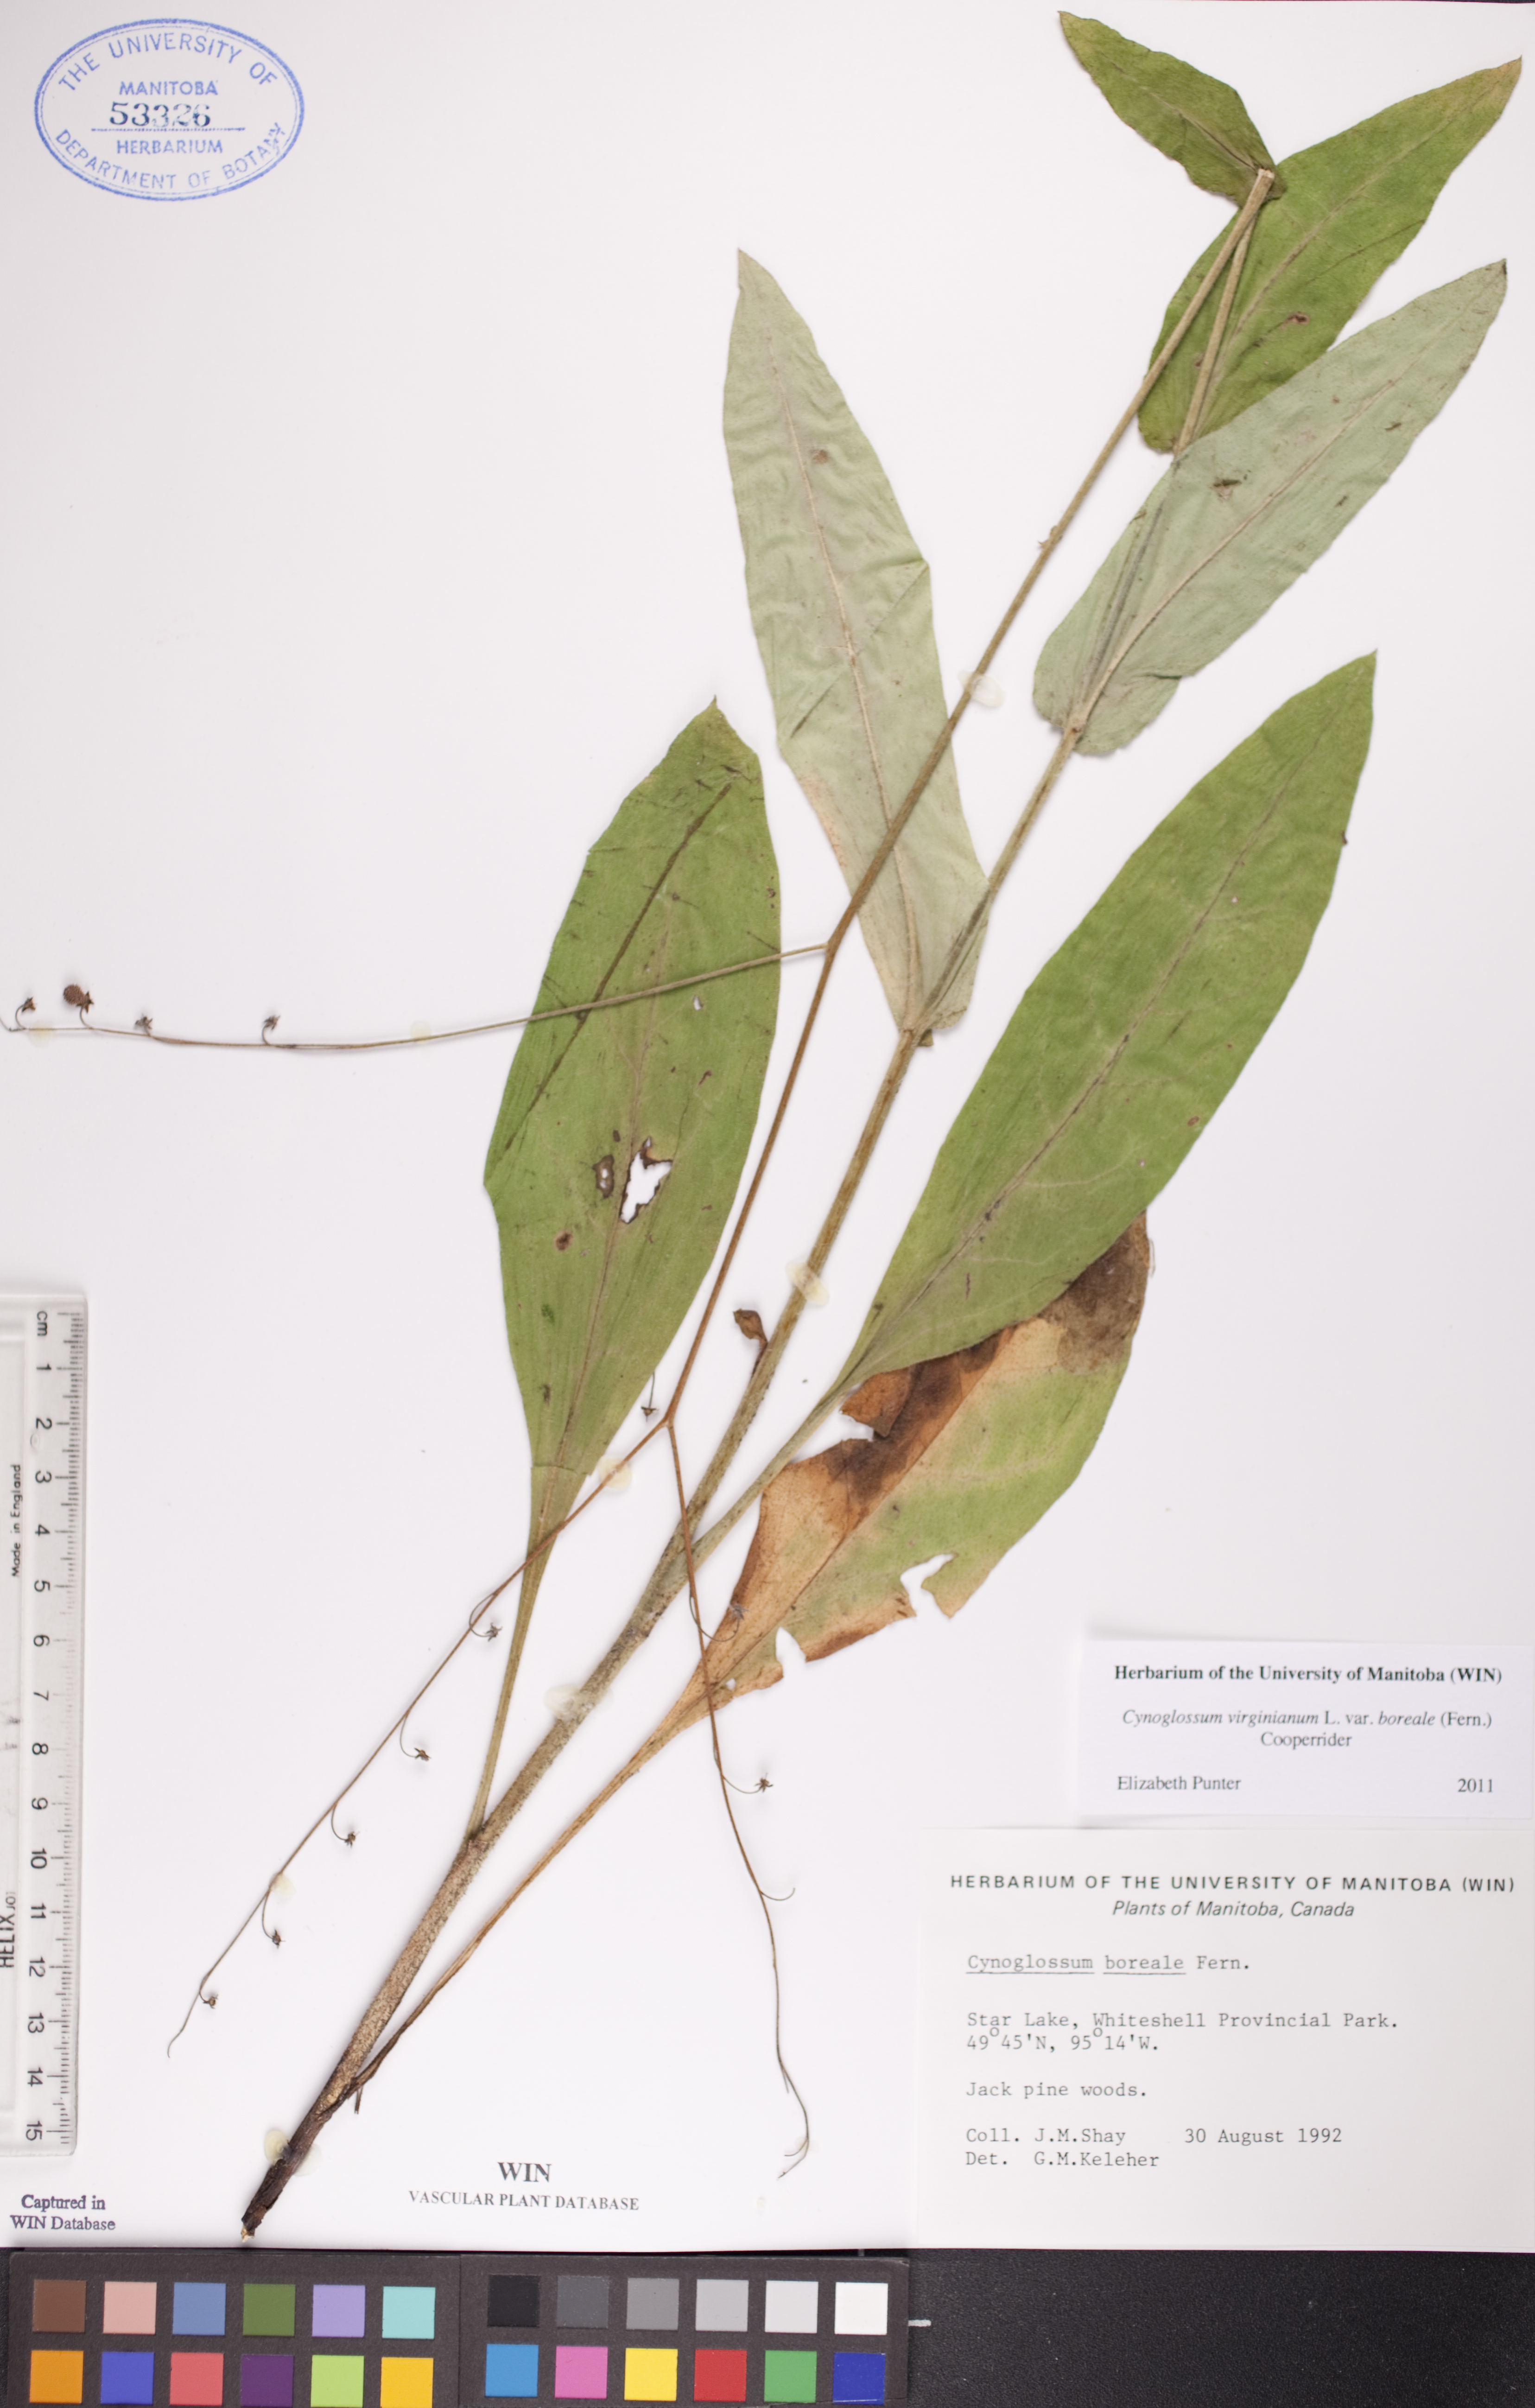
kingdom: Plantae
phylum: Tracheophyta
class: Magnoliopsida
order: Boraginales
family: Boraginaceae
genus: Andersonglossum
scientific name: Andersonglossum boreale
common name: Northern hound's-tongue
